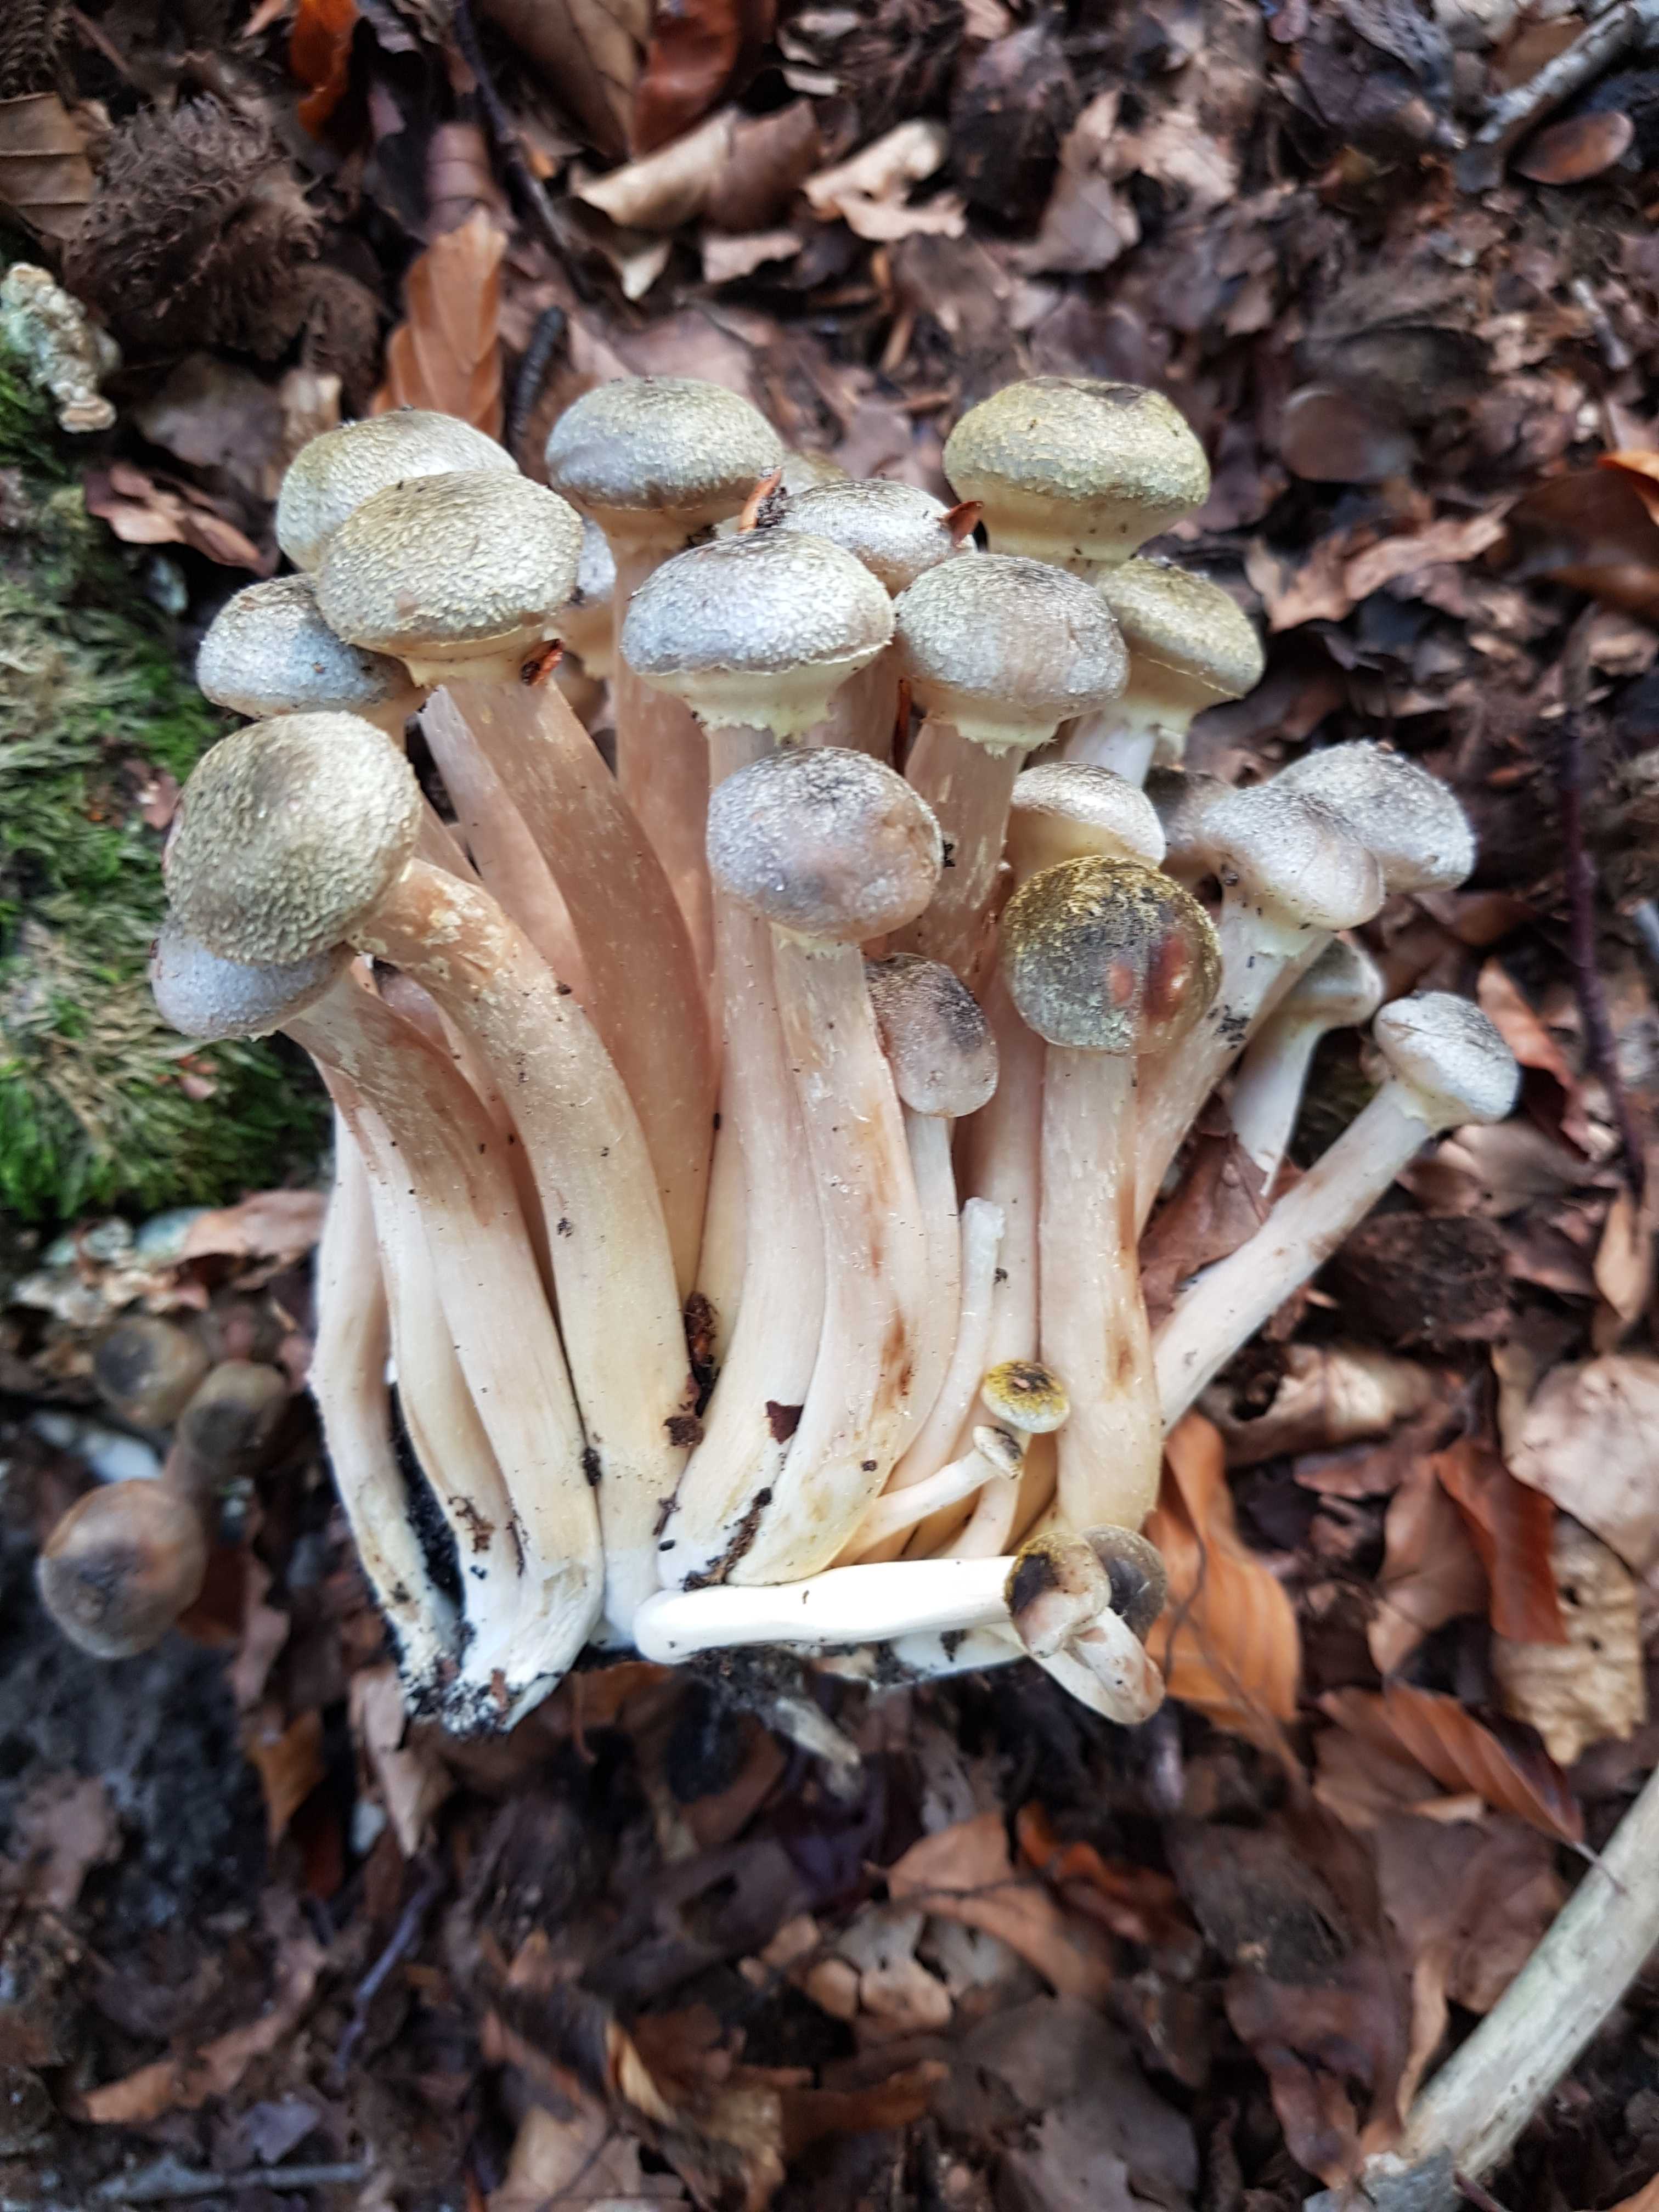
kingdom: Fungi
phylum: Basidiomycota
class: Agaricomycetes
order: Agaricales
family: Physalacriaceae
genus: Armillaria
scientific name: Armillaria mellea
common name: ægte honningsvamp
